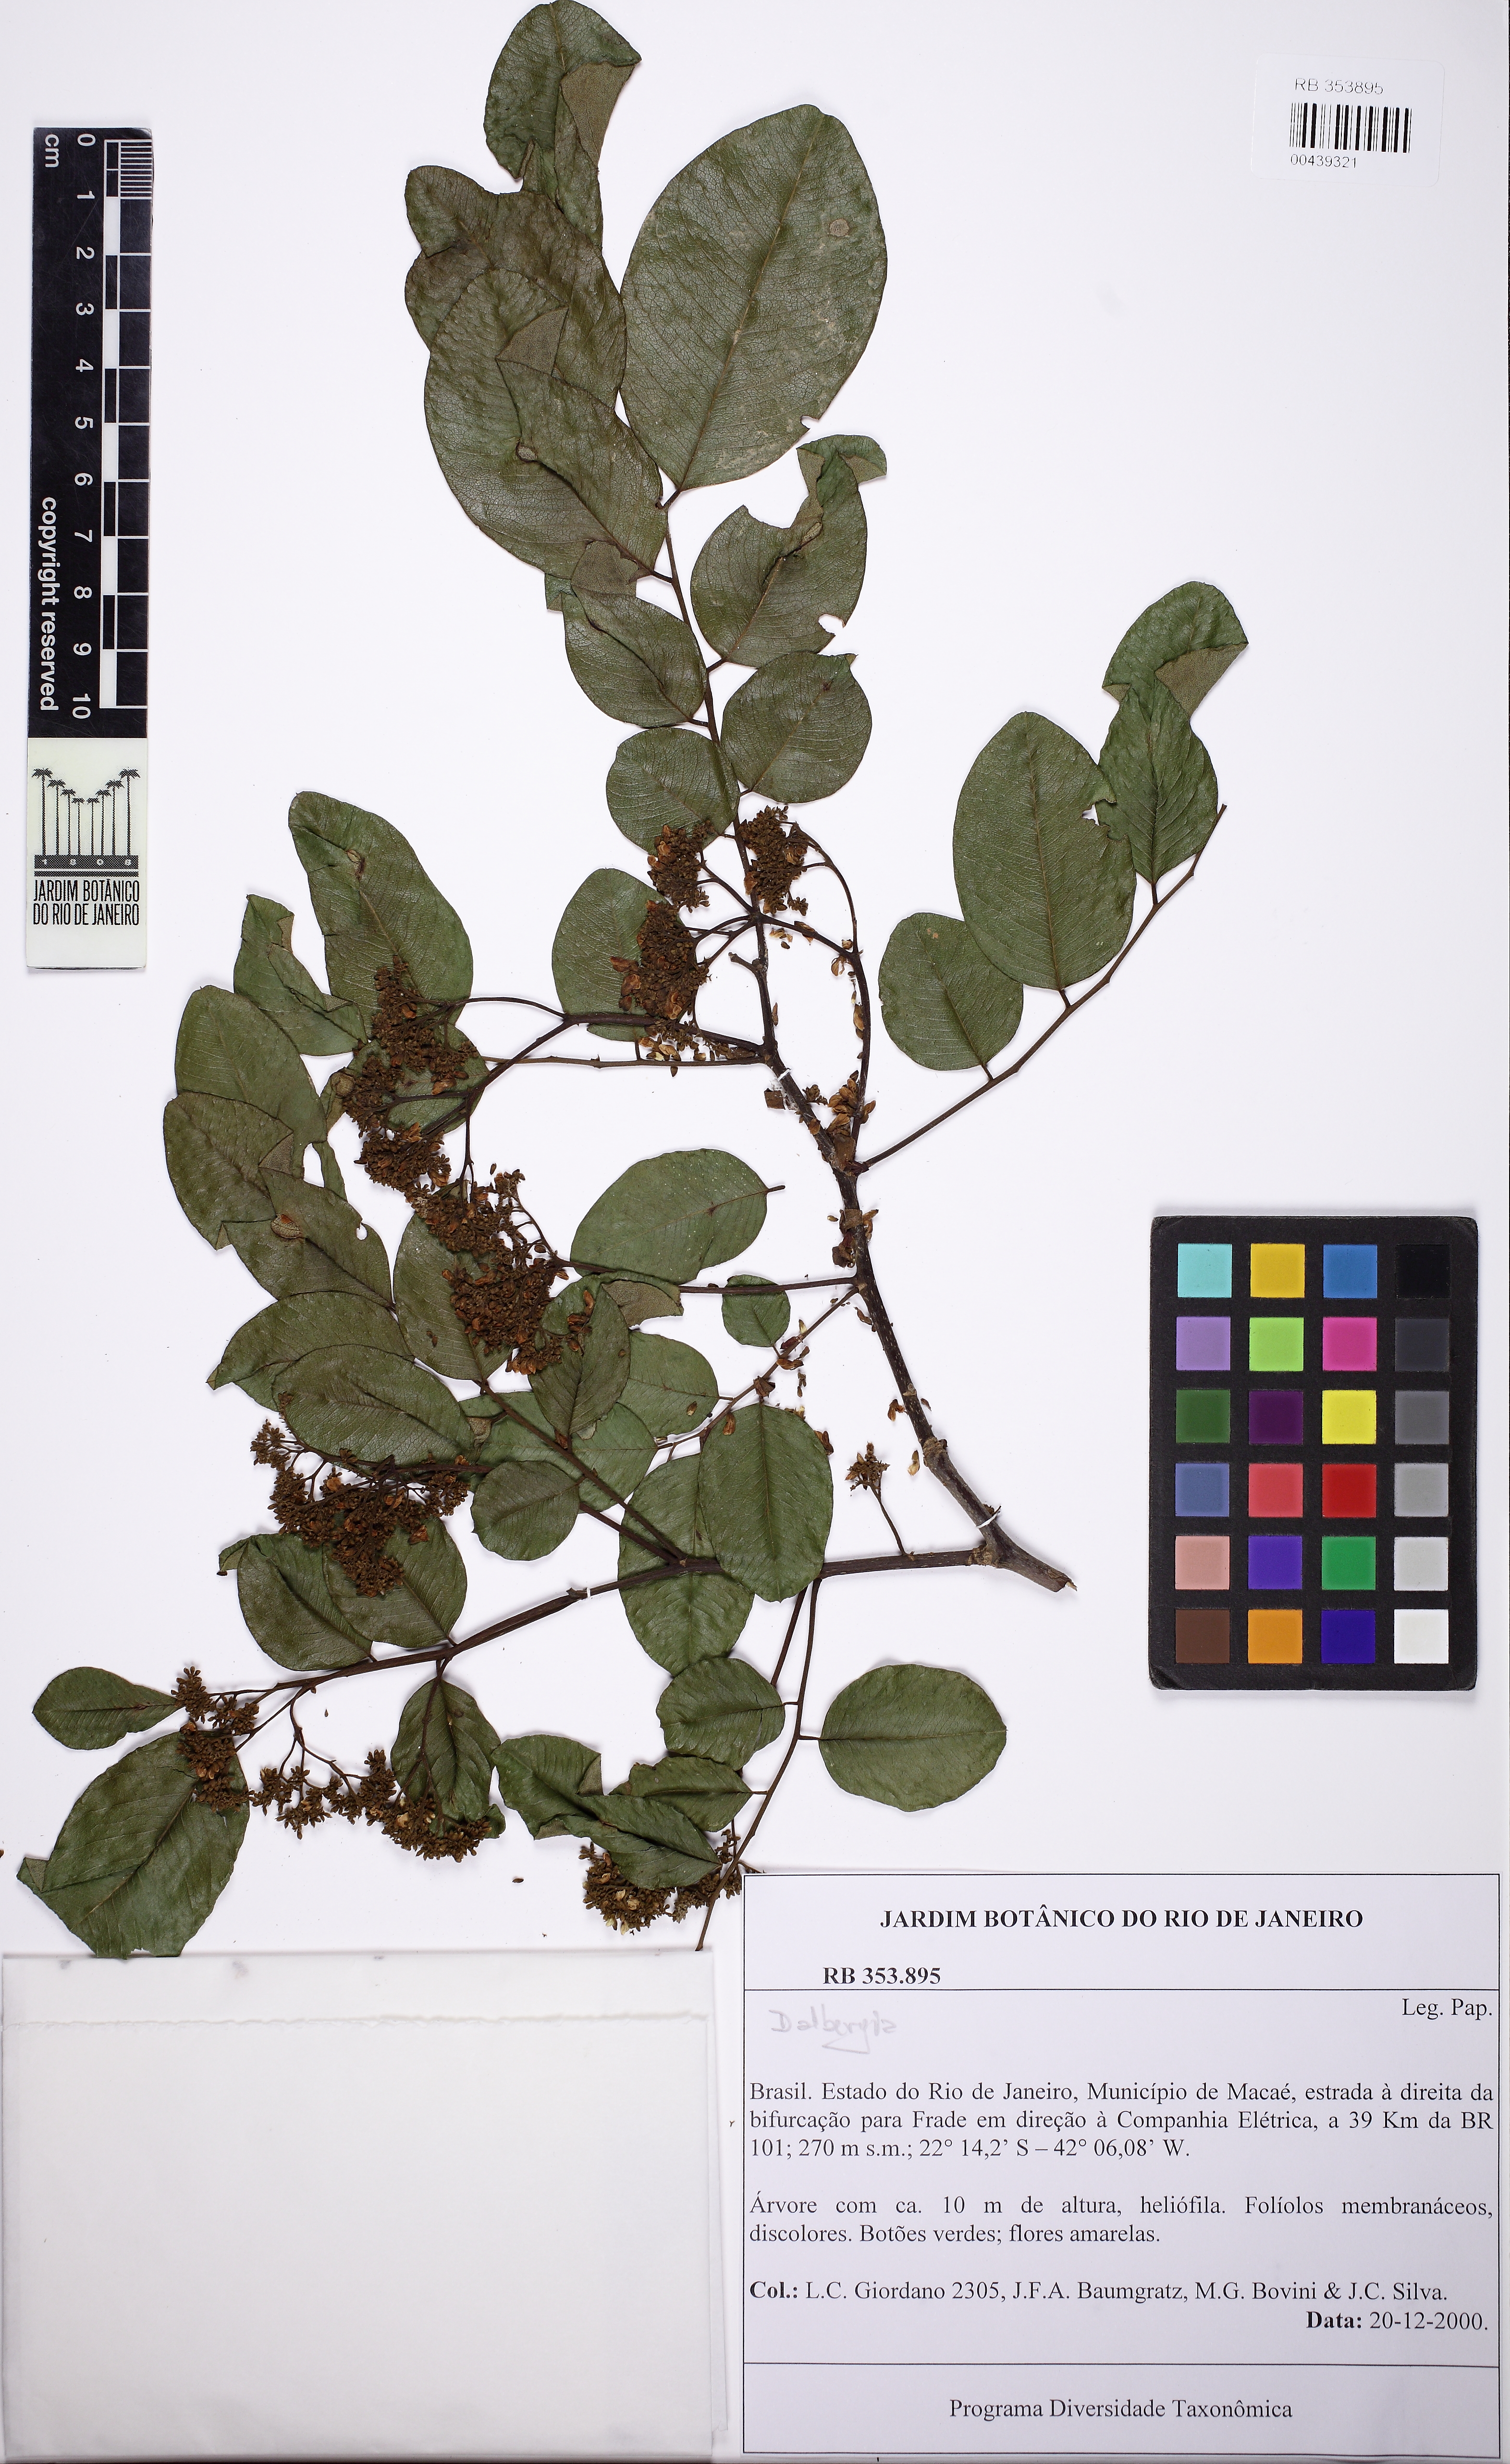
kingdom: Plantae
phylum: Tracheophyta
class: Magnoliopsida
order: Fabales
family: Fabaceae
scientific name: Fabaceae
